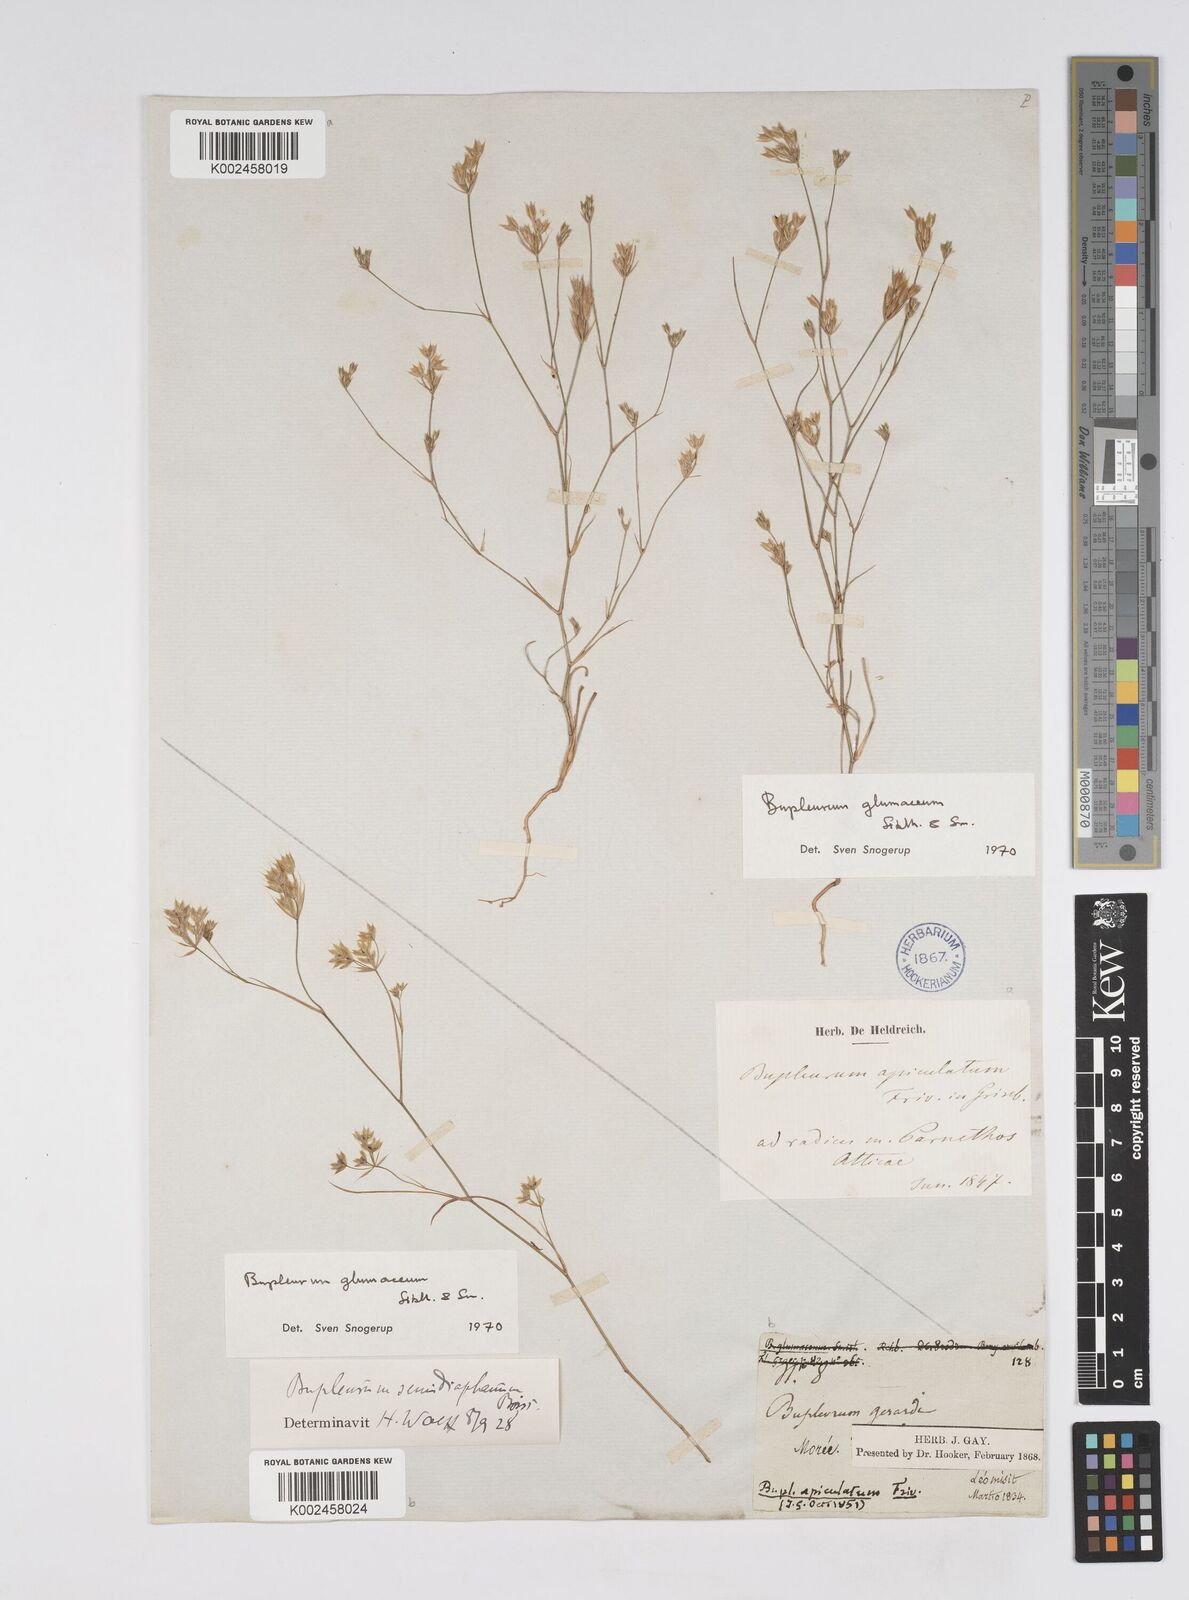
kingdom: Plantae
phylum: Tracheophyta
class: Magnoliopsida
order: Apiales
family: Apiaceae
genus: Bupleurum
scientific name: Bupleurum glumaceum
